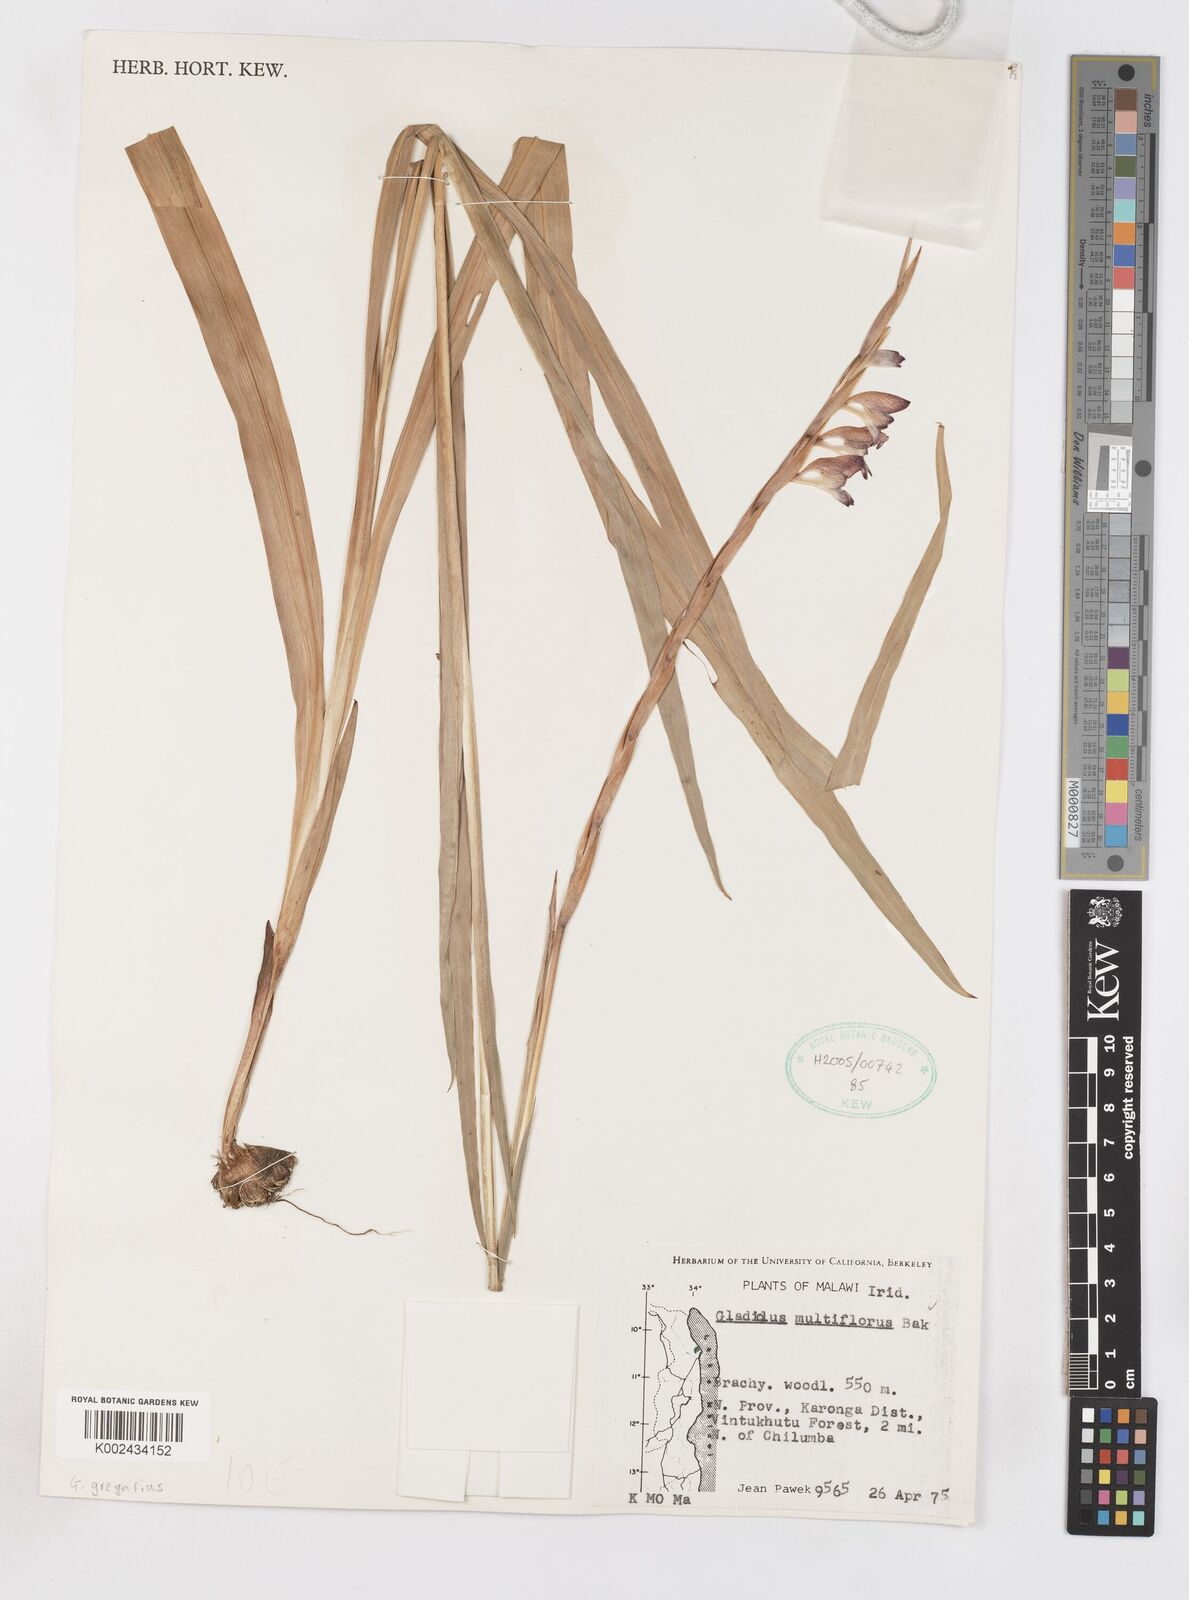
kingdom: Plantae
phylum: Tracheophyta
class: Liliopsida
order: Asparagales
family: Iridaceae
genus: Gladiolus
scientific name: Gladiolus gregarius
